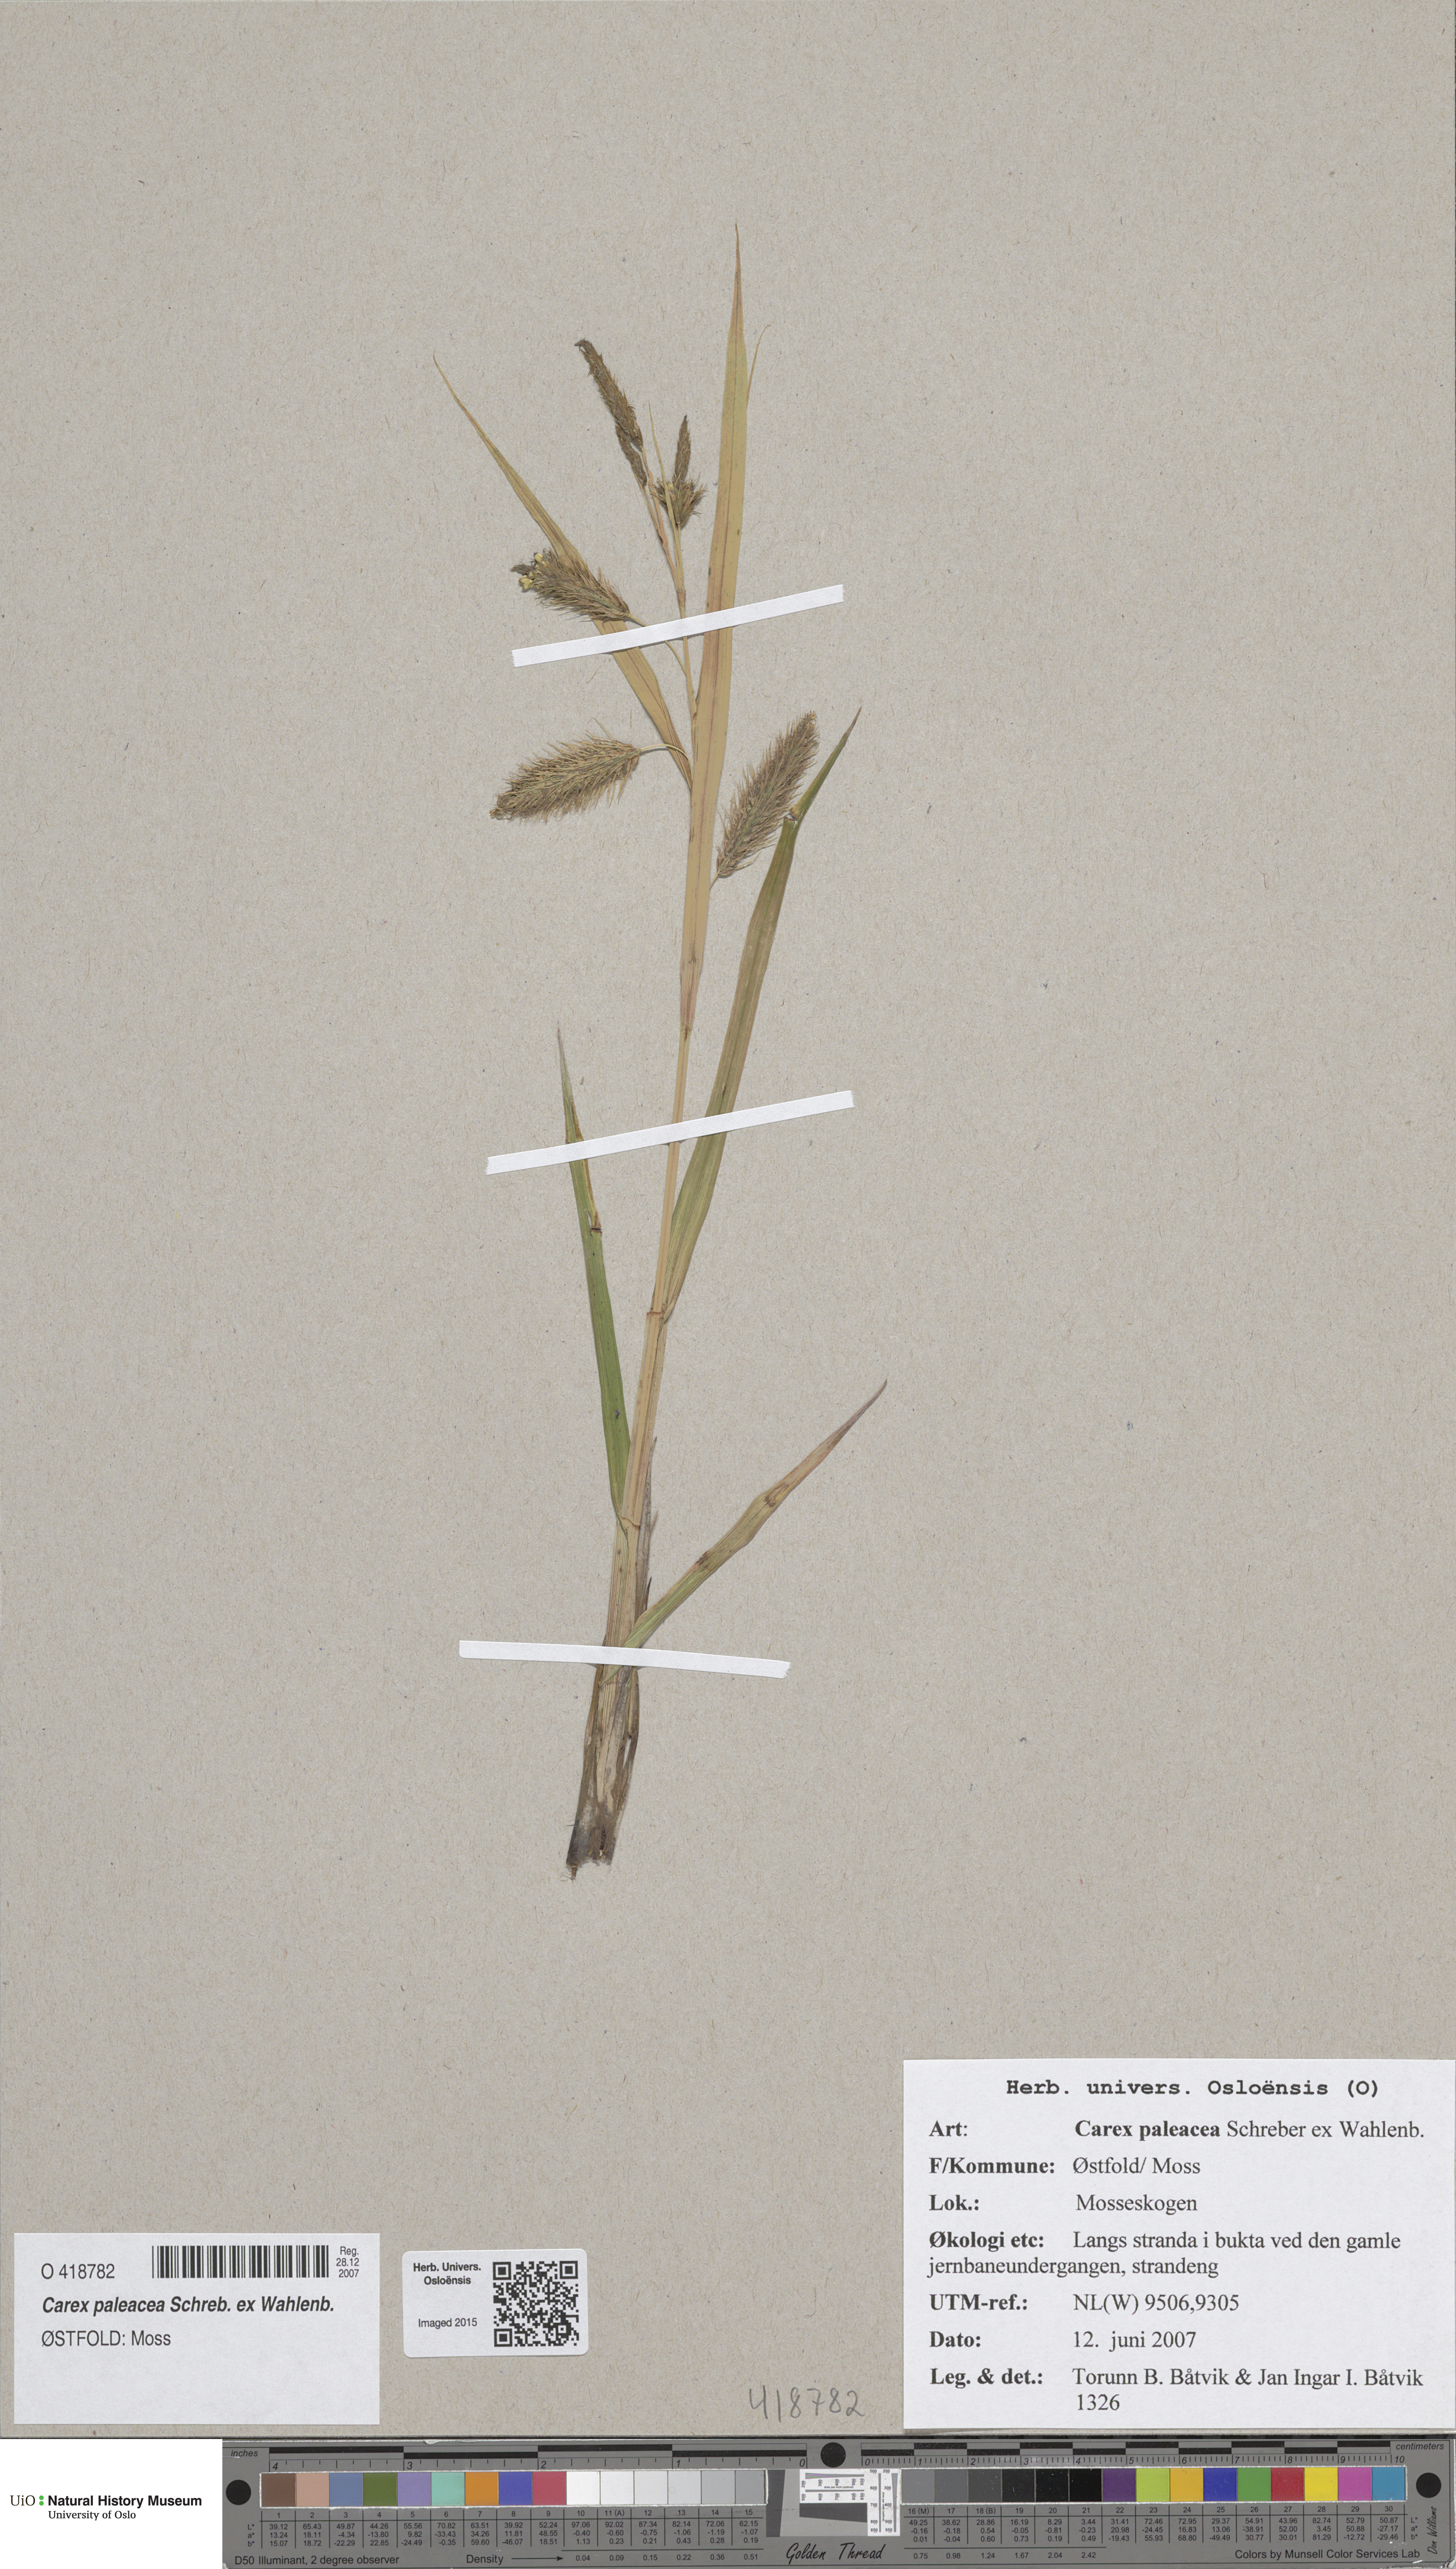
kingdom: Plantae
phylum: Tracheophyta
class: Liliopsida
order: Poales
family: Cyperaceae
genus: Carex
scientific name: Carex paleacea
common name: Chaffy sedge
